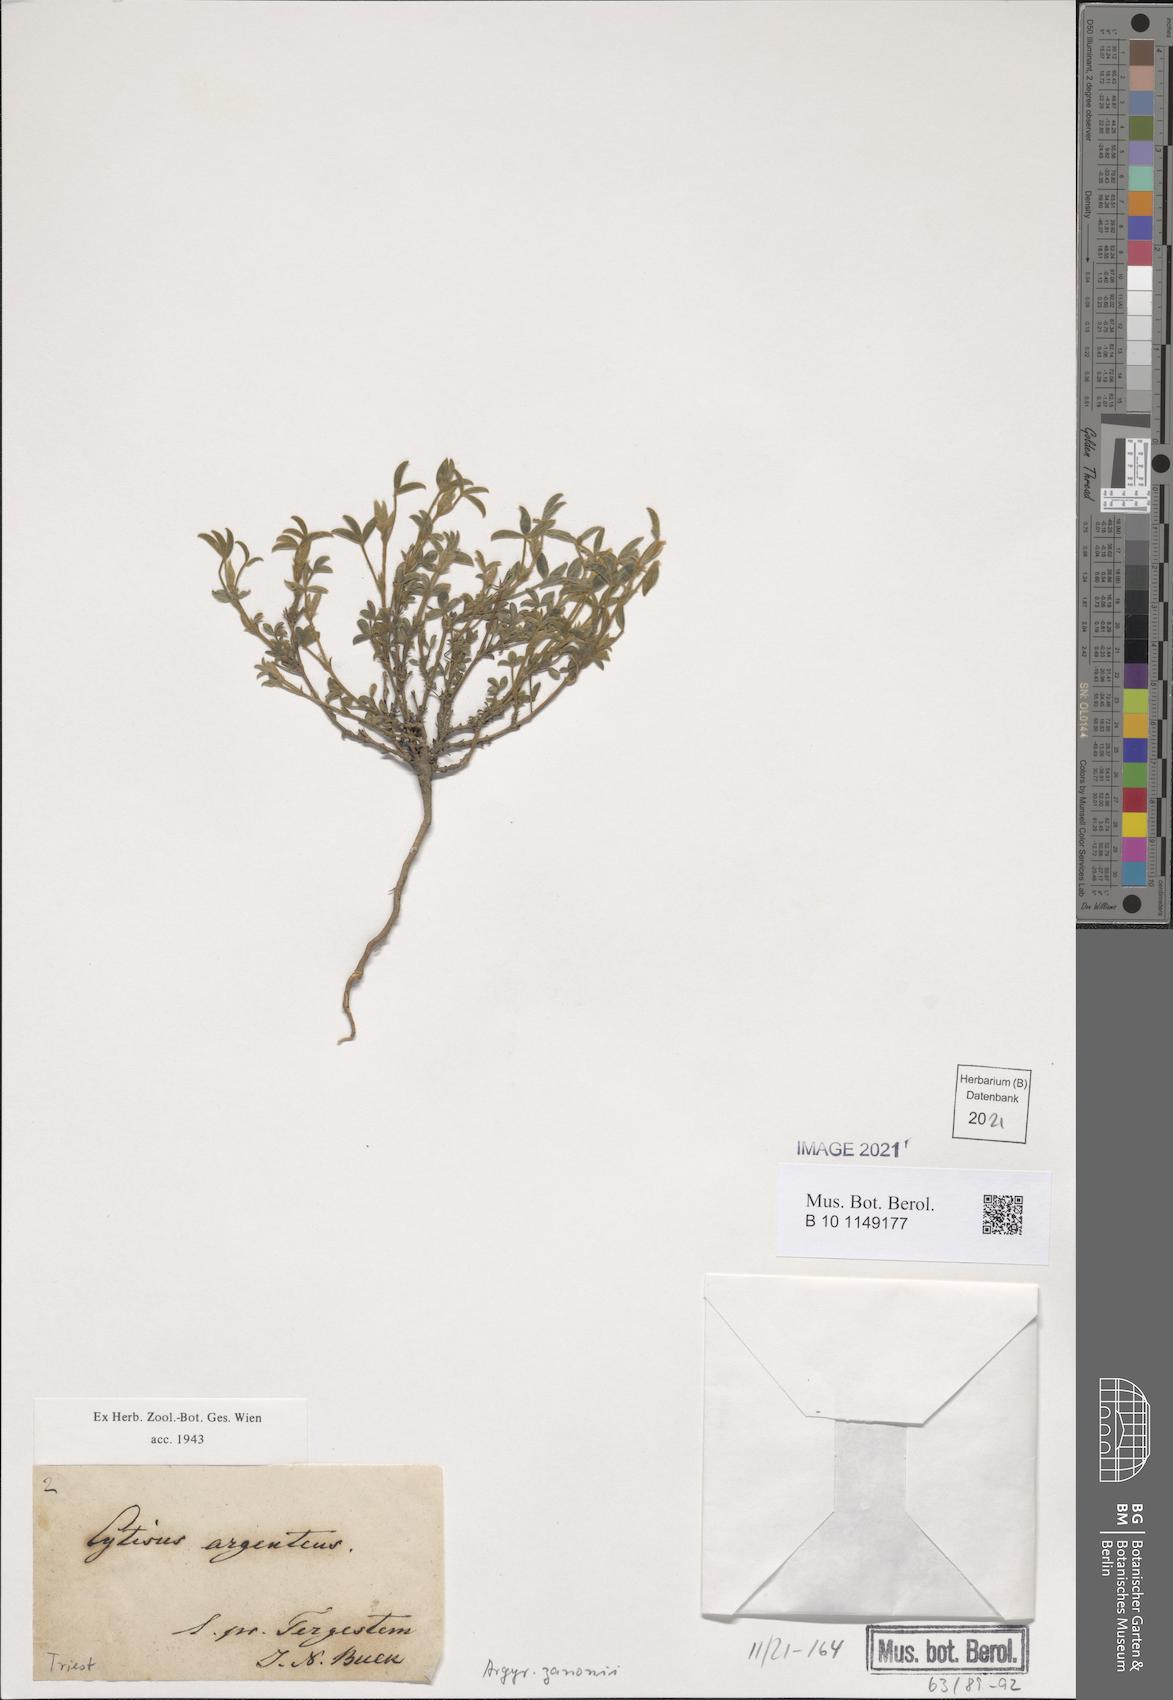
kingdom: Plantae
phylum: Tracheophyta
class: Magnoliopsida
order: Fabales
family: Fabaceae
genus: Argyrolobium
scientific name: Argyrolobium zanonii
